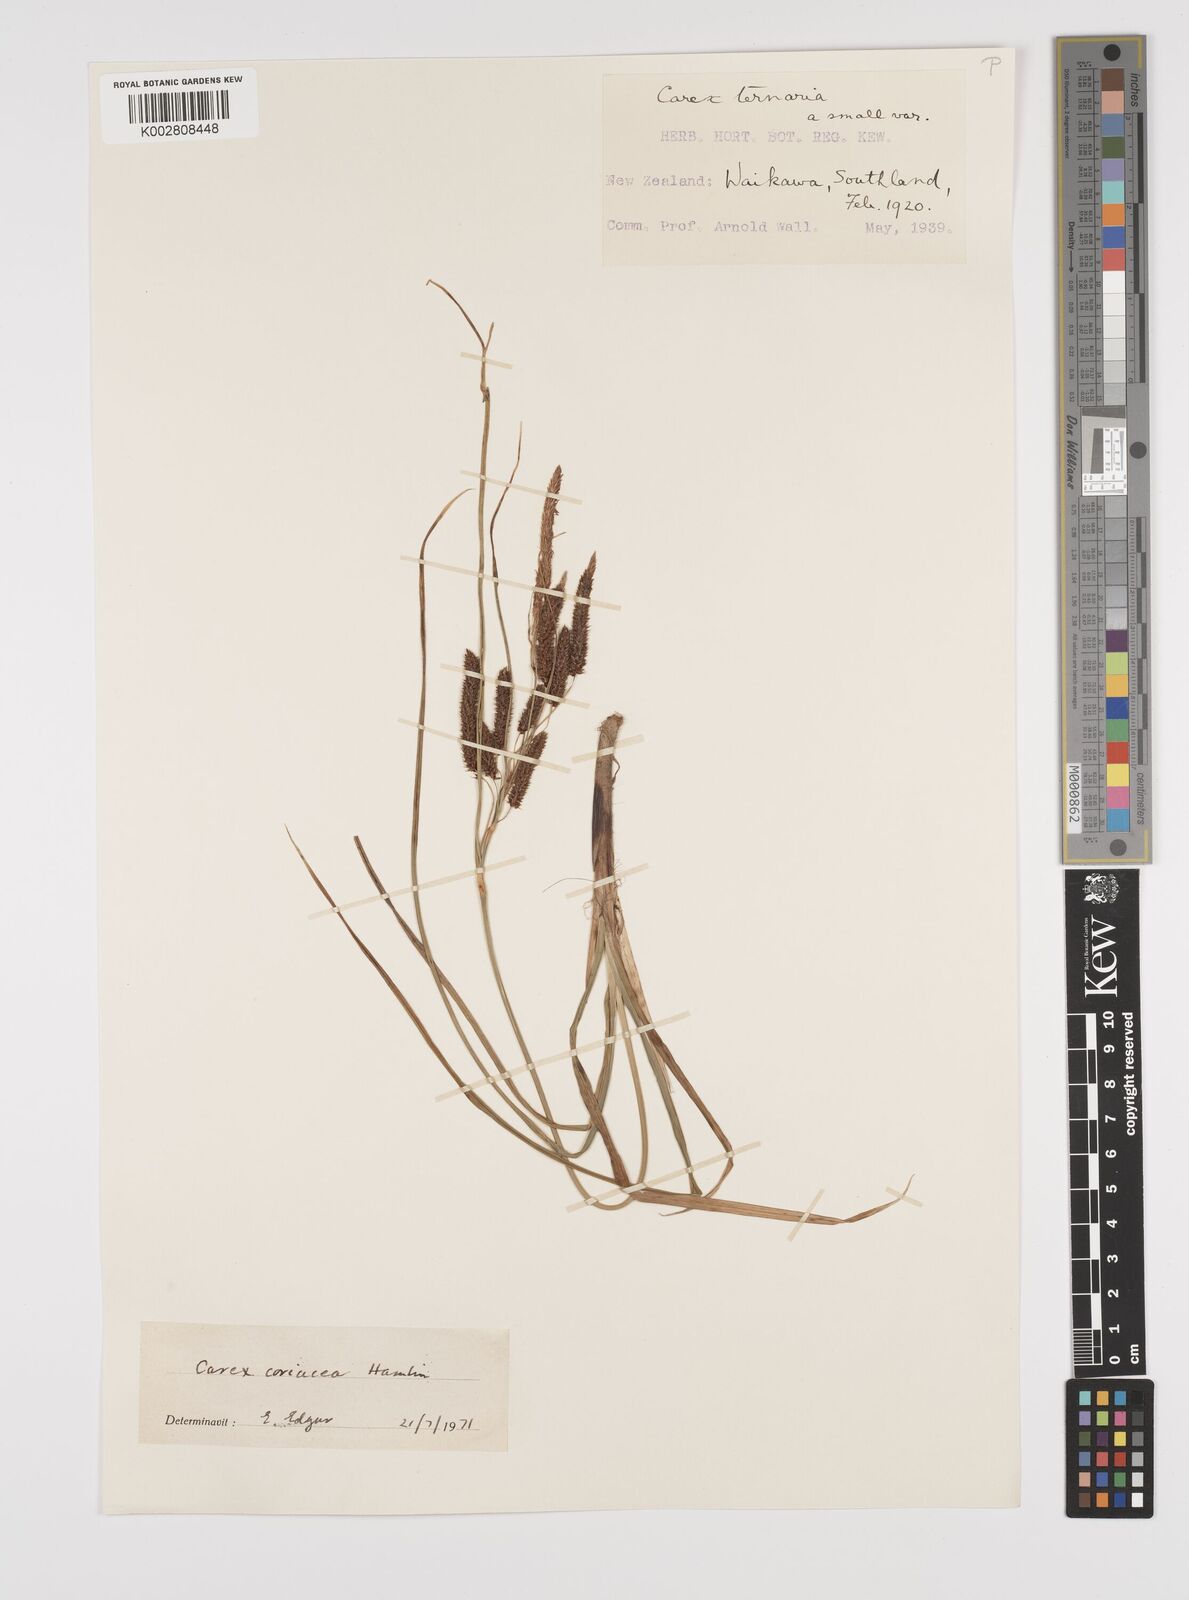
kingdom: Plantae
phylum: Tracheophyta
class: Liliopsida
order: Poales
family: Cyperaceae
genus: Carex
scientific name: Carex coriacea
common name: Rautahi
